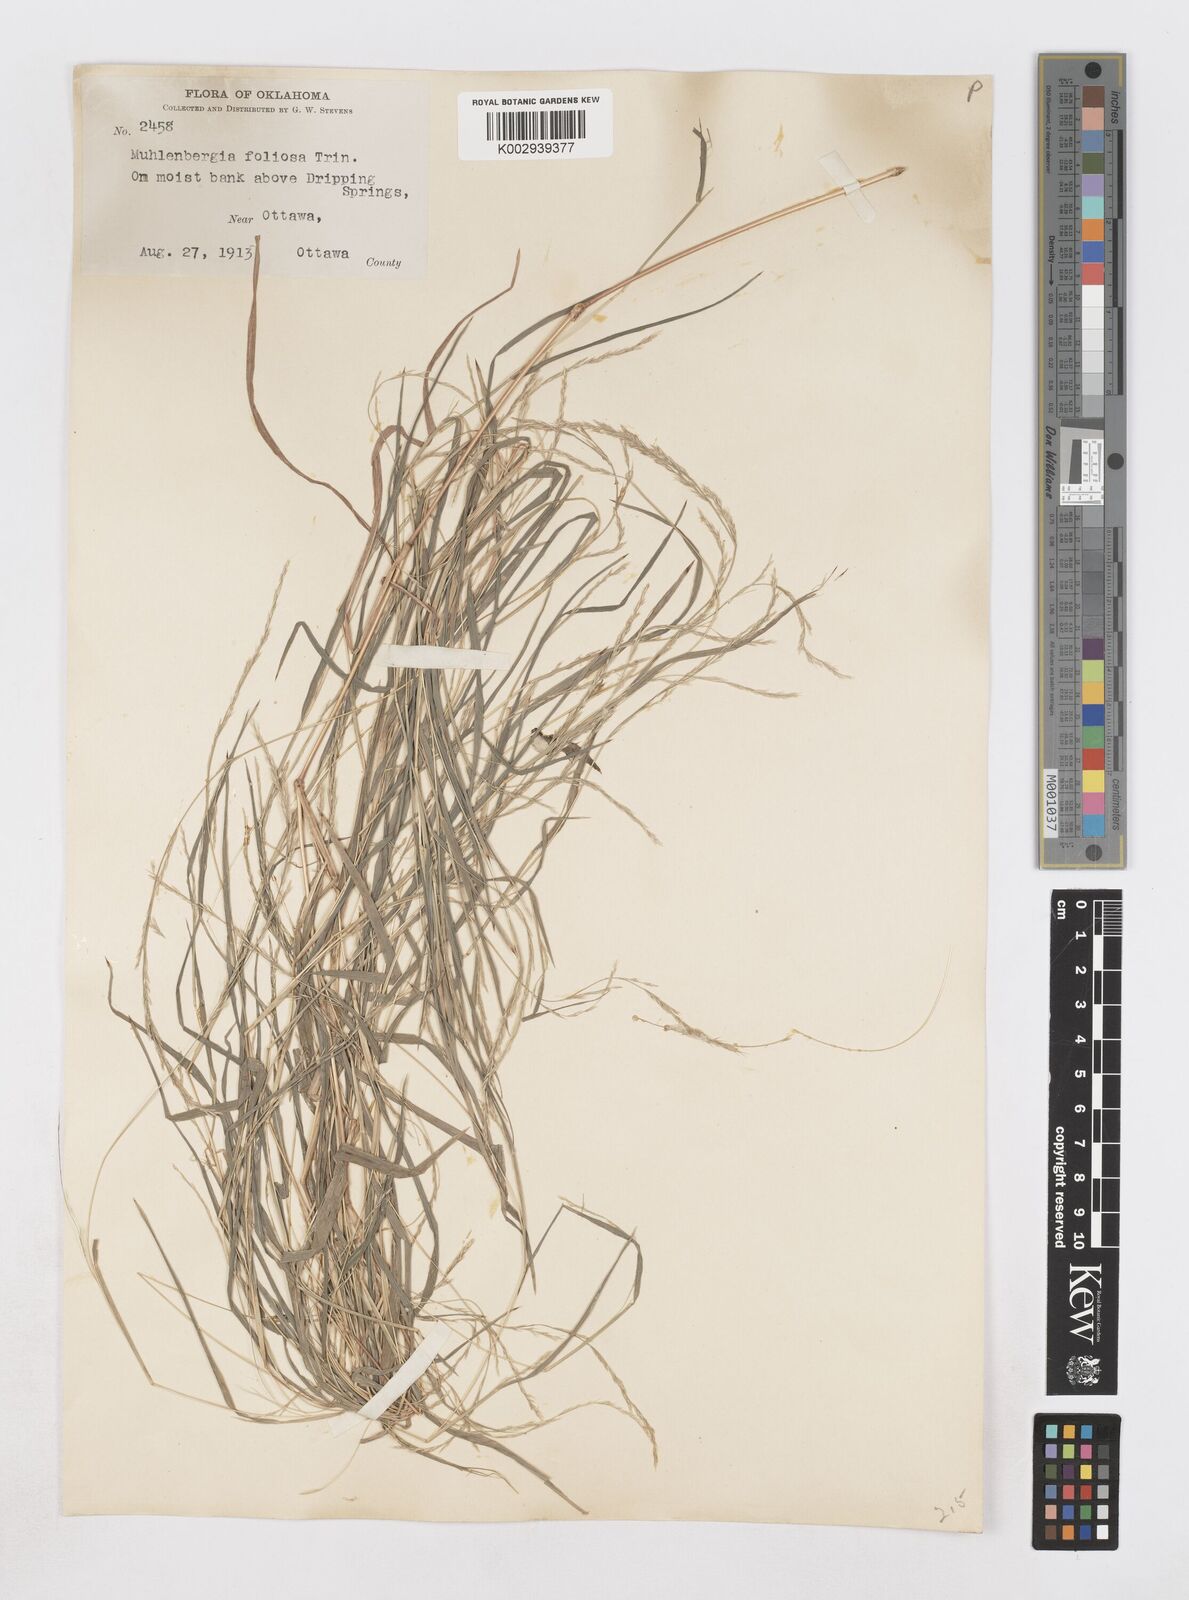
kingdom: Plantae
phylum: Tracheophyta
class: Liliopsida
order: Poales
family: Poaceae
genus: Muhlenbergia
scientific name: Muhlenbergia mexicana
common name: Mexican muhly
